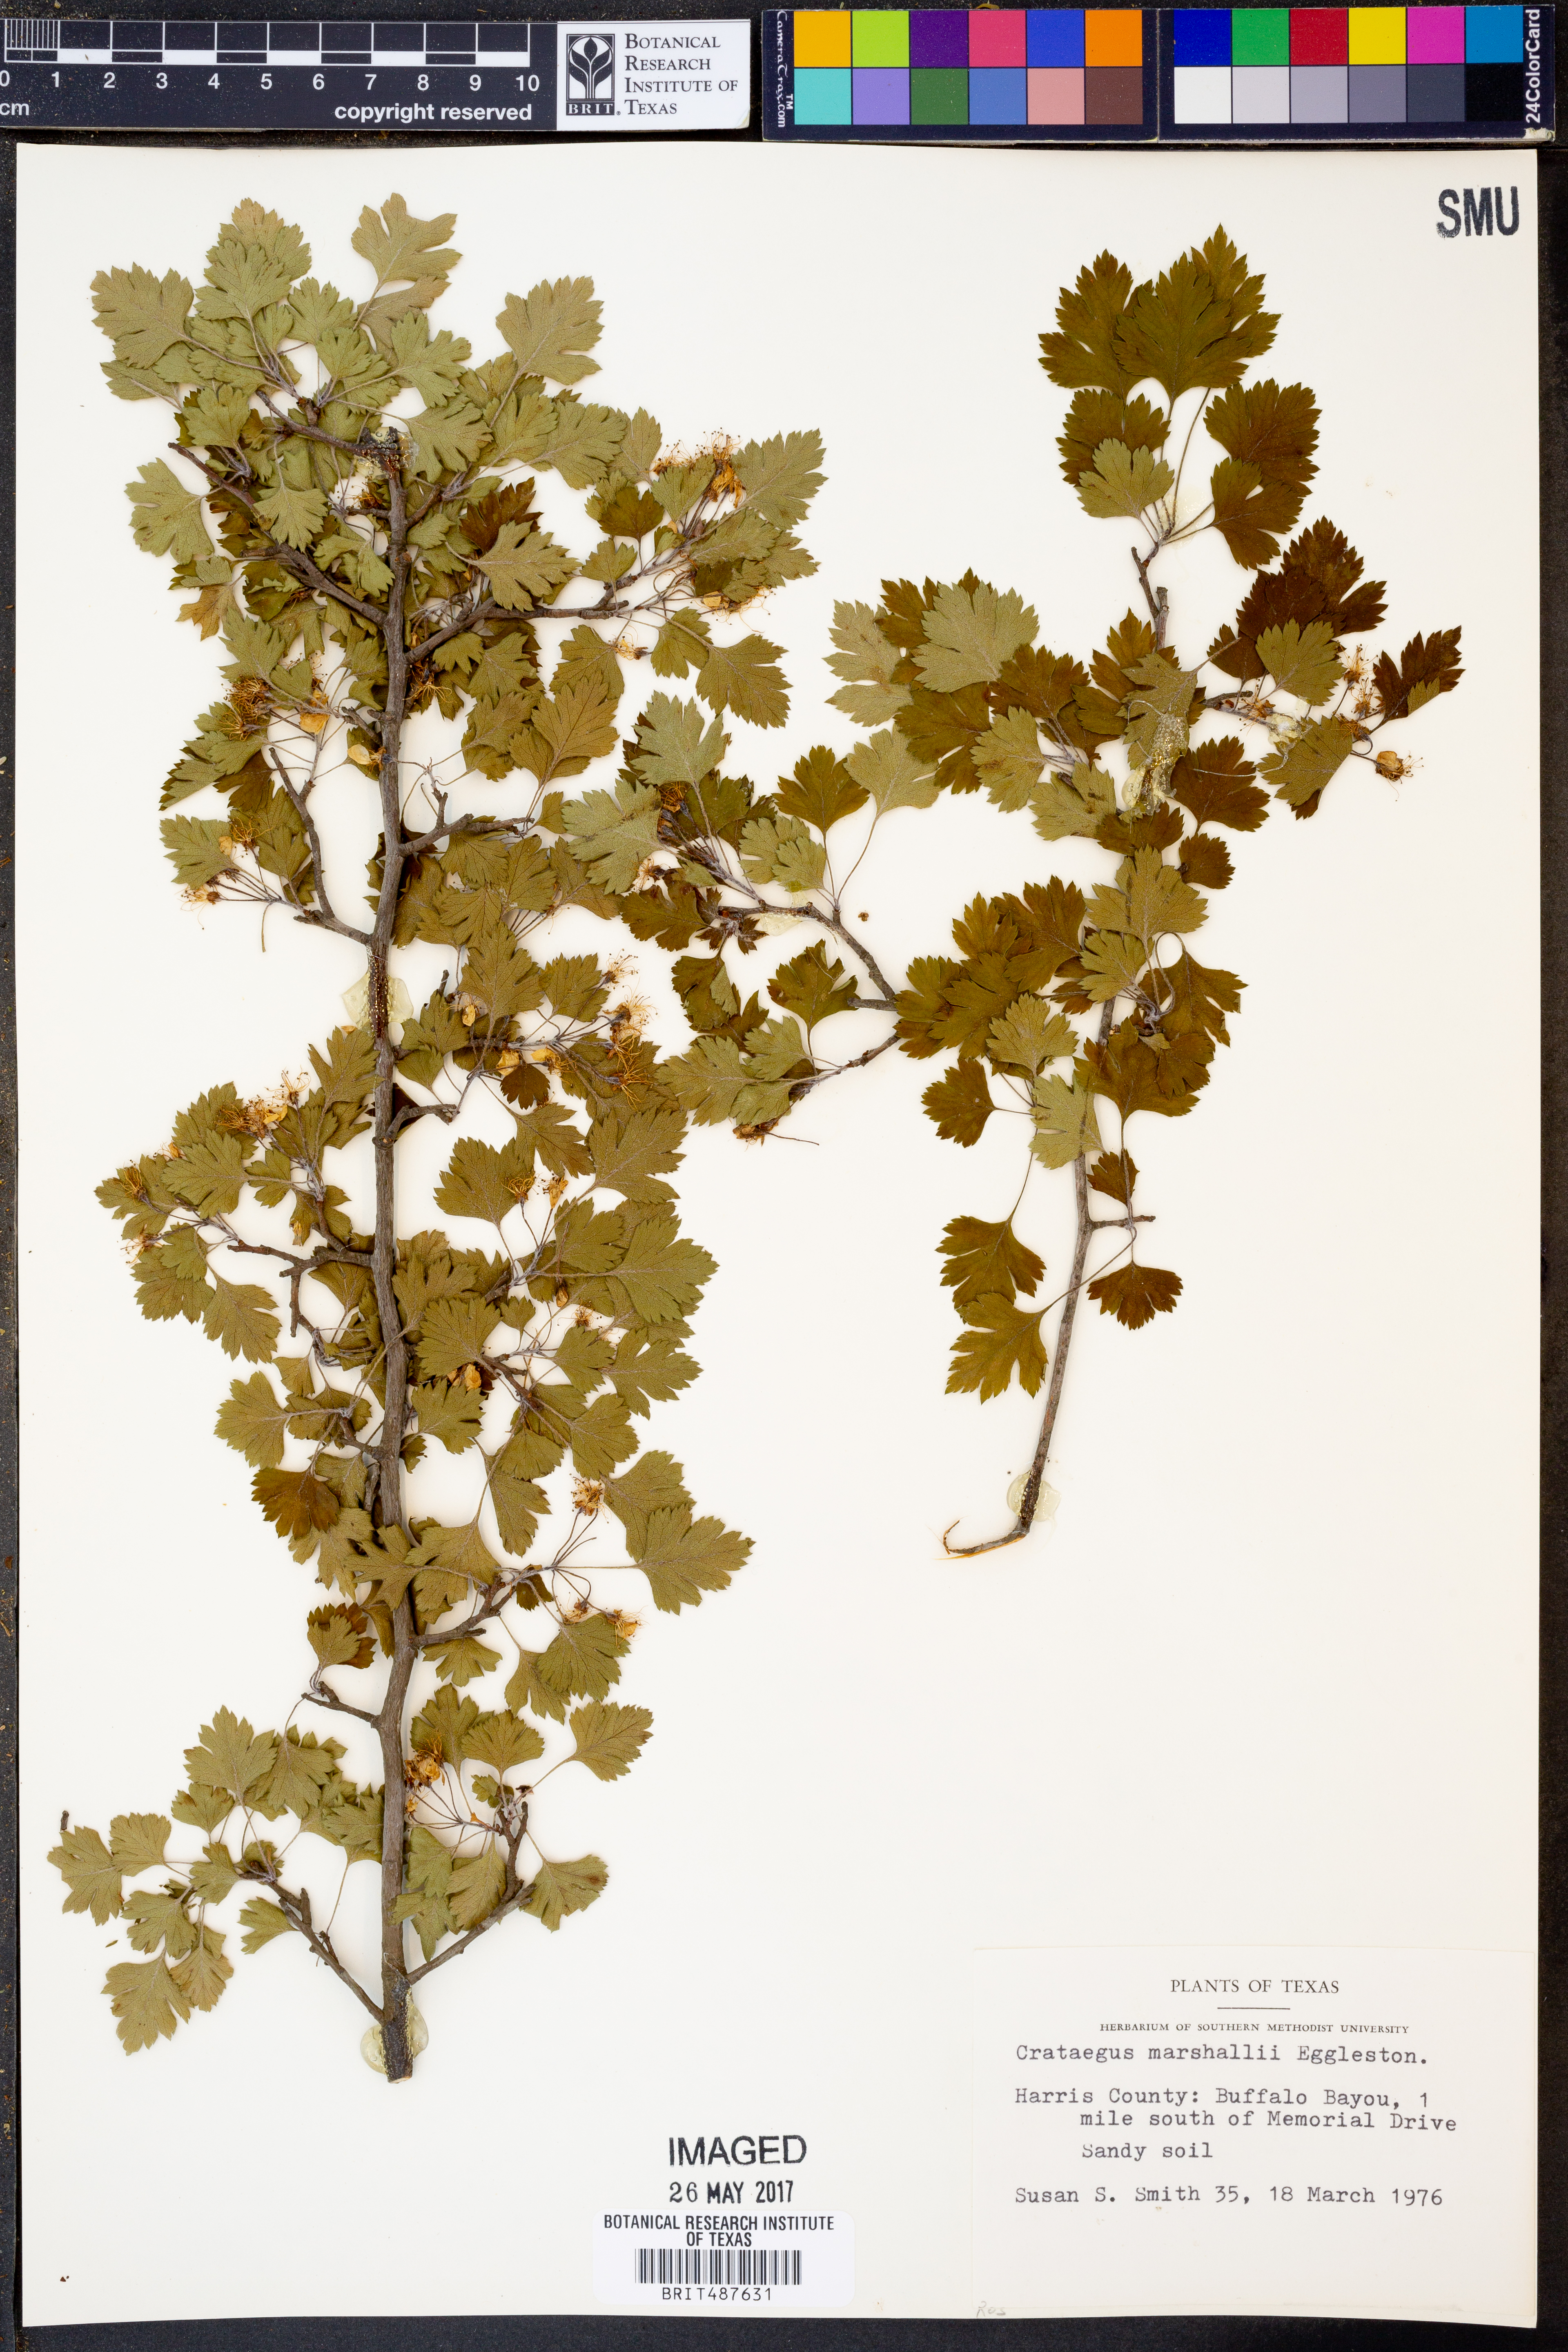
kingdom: Plantae
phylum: Tracheophyta
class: Magnoliopsida
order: Rosales
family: Rosaceae
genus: Crataegus
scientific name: Crataegus marshallii
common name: Parsley-hawthorn
